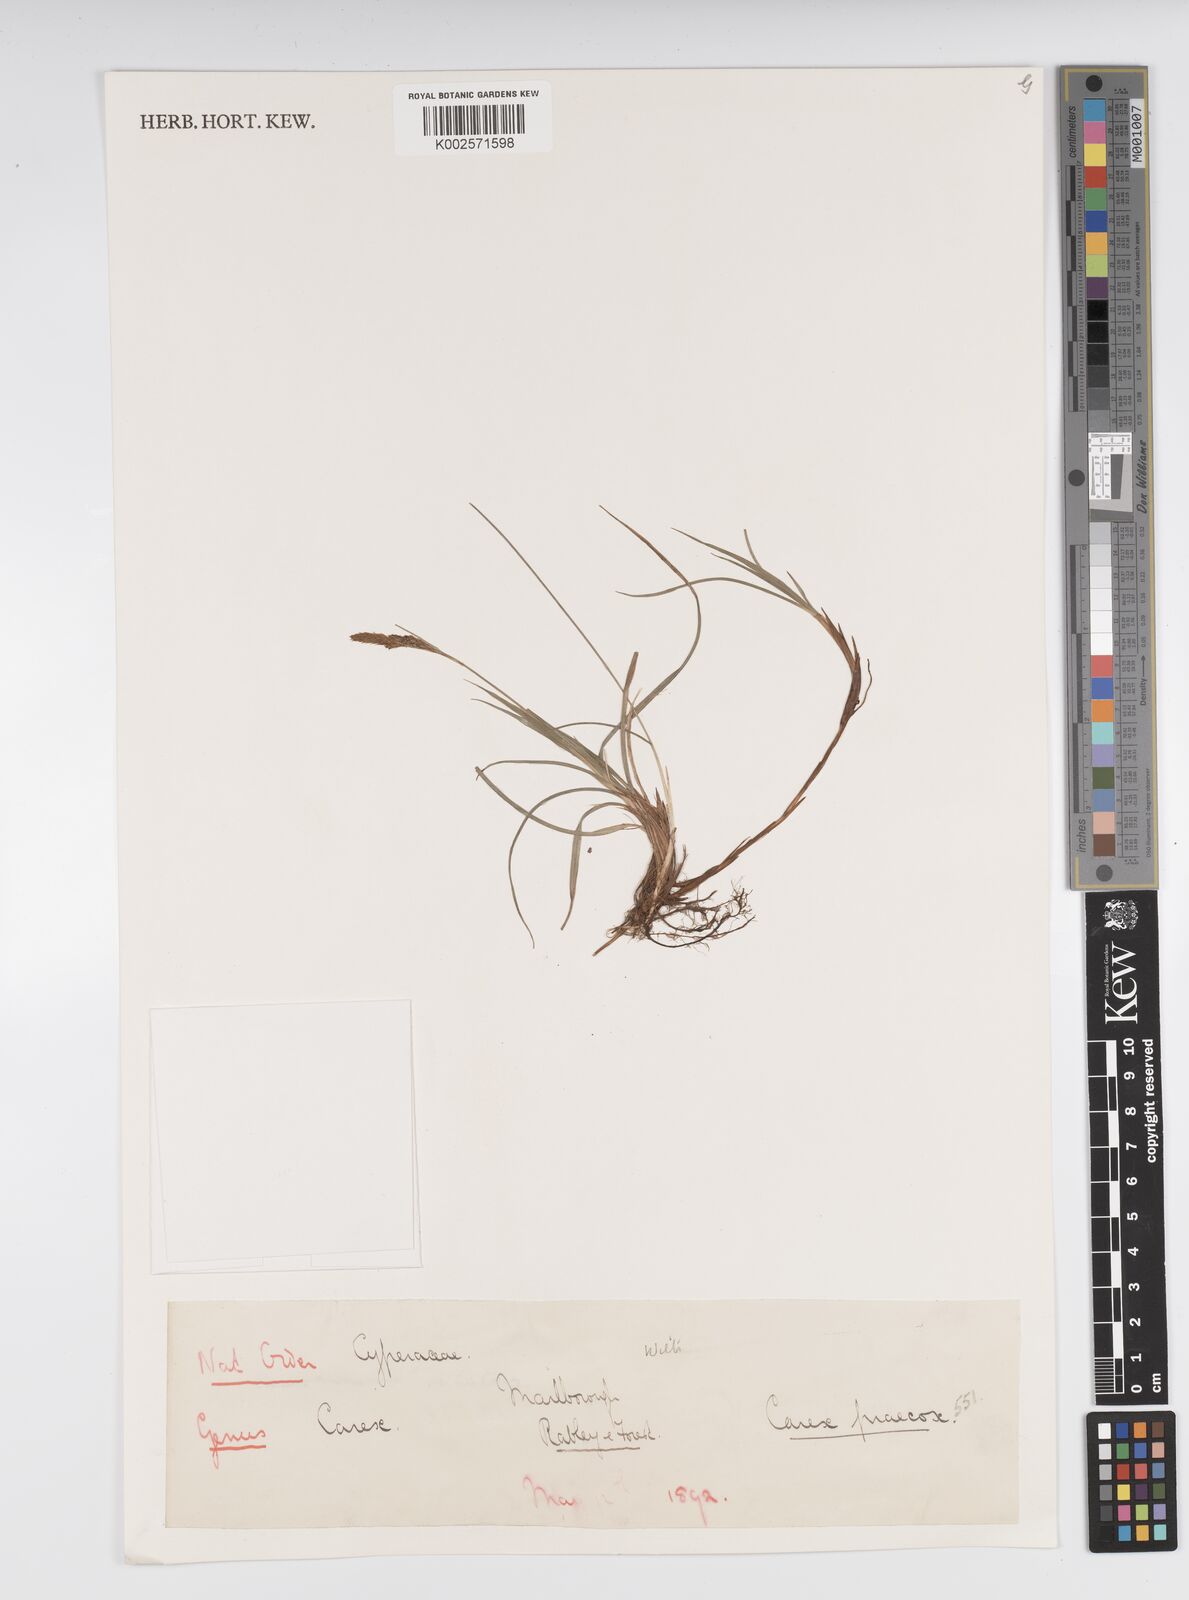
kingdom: Plantae
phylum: Tracheophyta
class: Liliopsida
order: Poales
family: Cyperaceae
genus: Carex
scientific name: Carex caryophyllea
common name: Spring sedge
